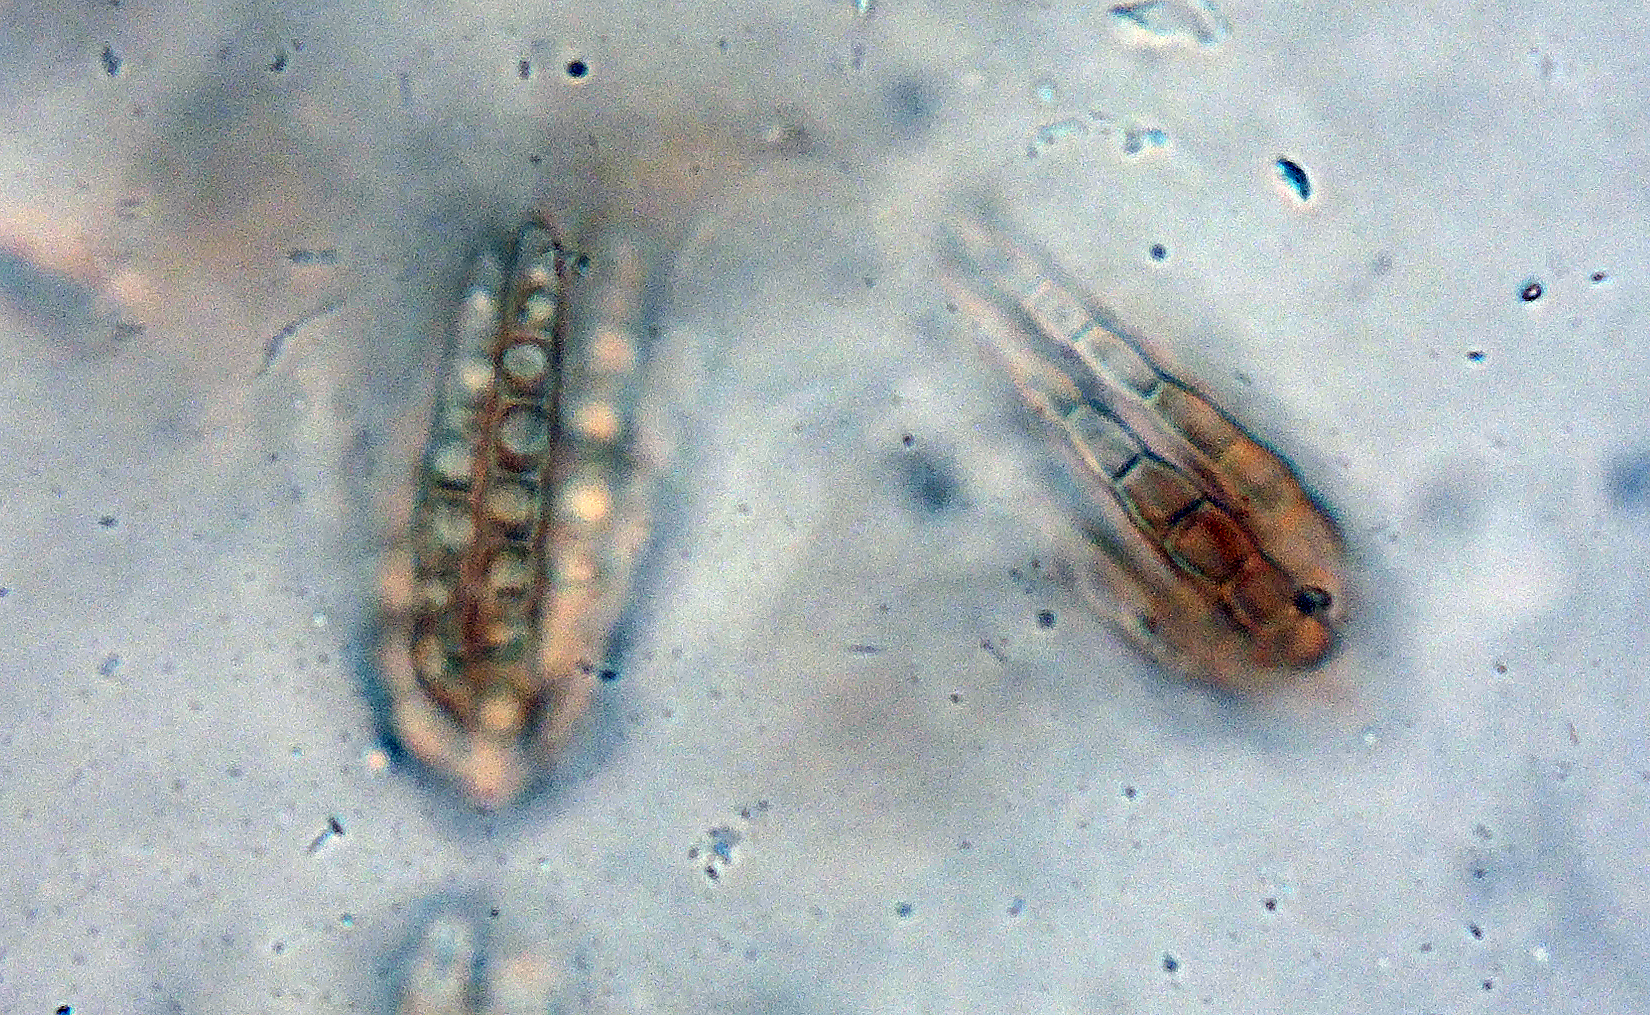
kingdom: Fungi
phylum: Ascomycota
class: Dothideomycetes
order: Pleosporales
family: Cryptocoryneaceae
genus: Cryptocoryneum
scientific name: Cryptocoryneum psammae
